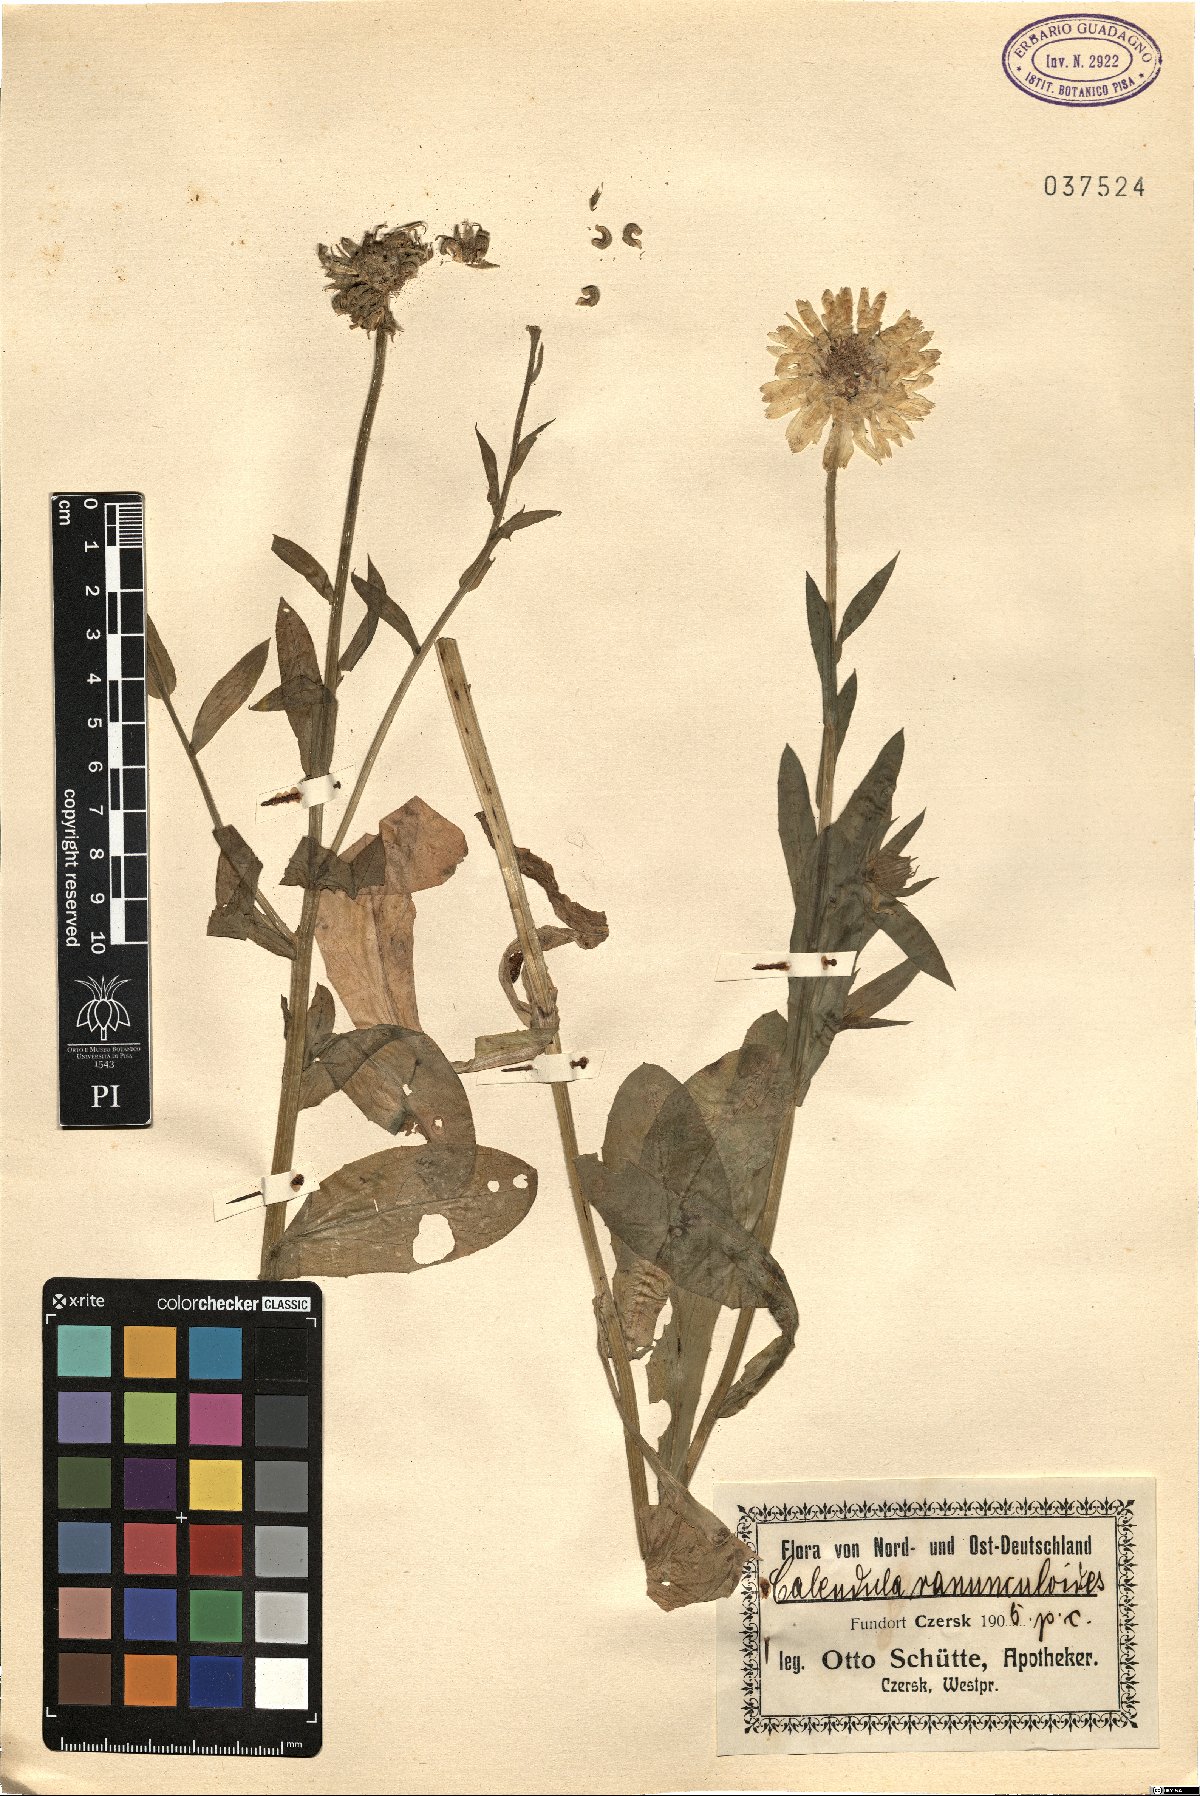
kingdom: Plantae
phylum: Tracheophyta
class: Magnoliopsida
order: Asterales
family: Asteraceae
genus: Calendula
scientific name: Calendula ranunculodes
